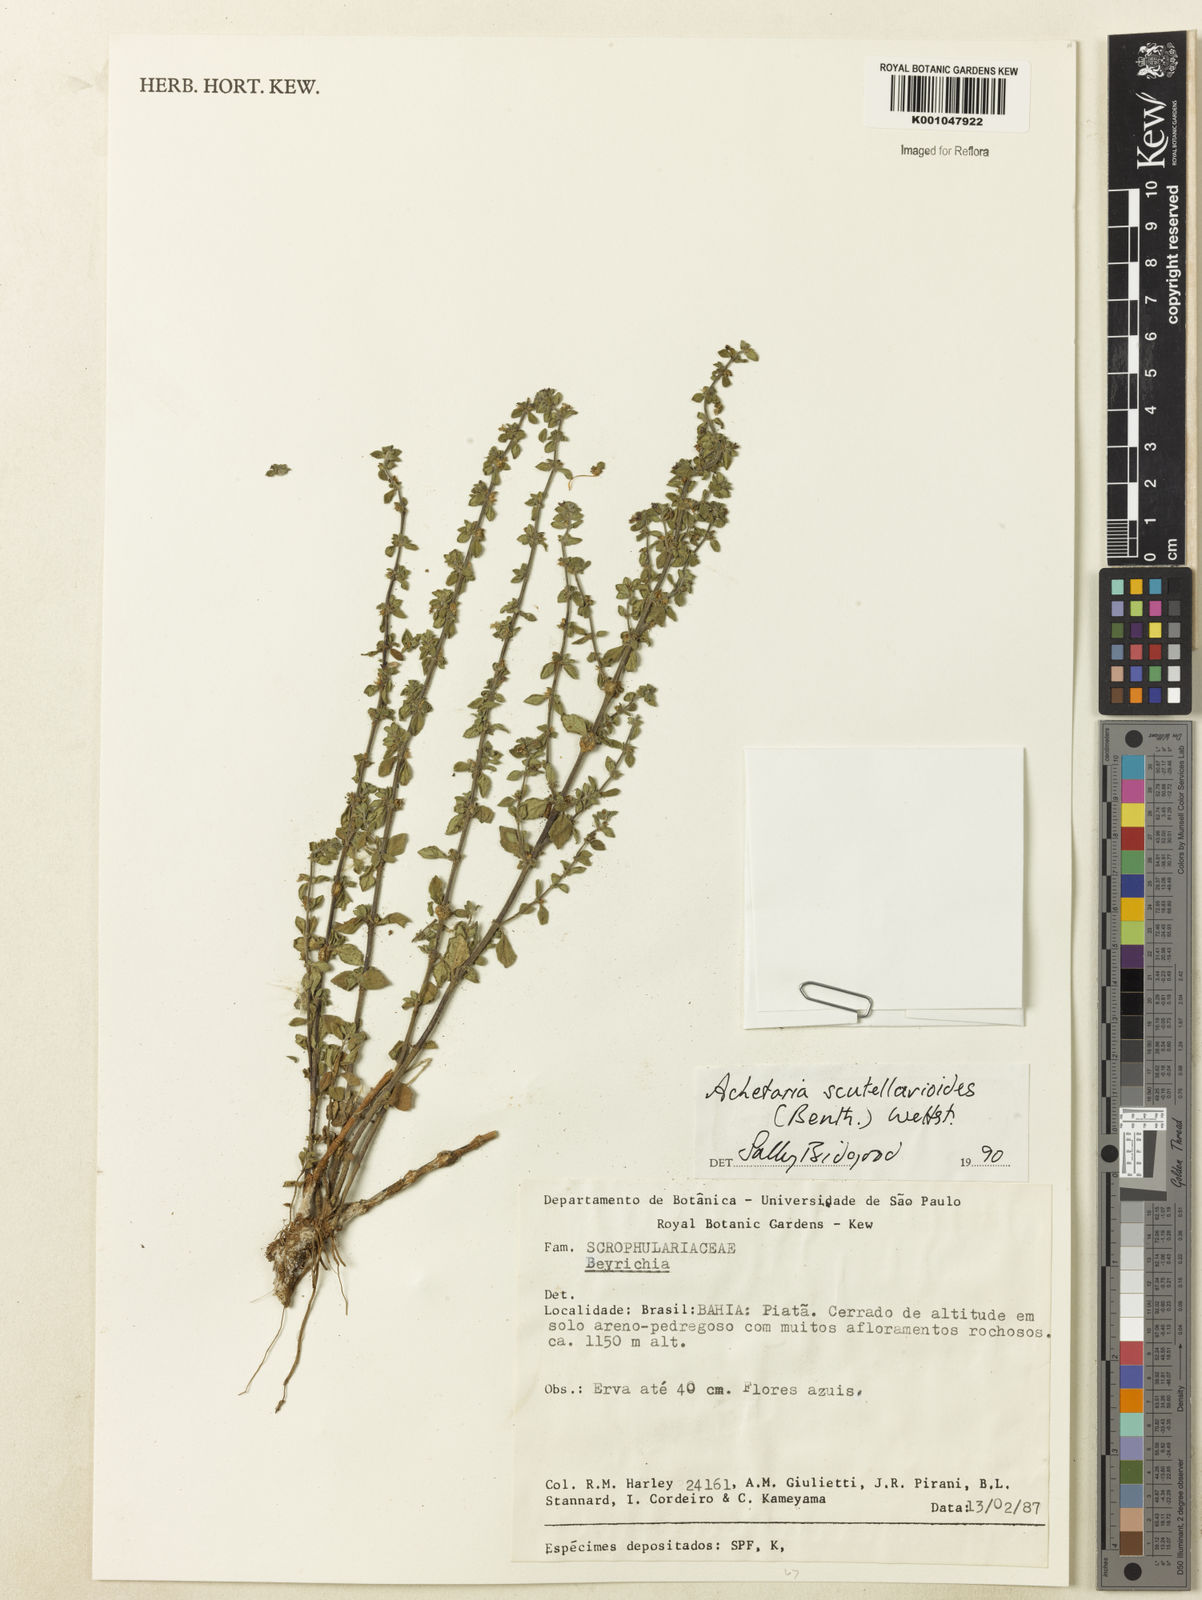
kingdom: Plantae
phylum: Tracheophyta
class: Magnoliopsida
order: Lamiales
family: Plantaginaceae
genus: Matourea
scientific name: Matourea scutellarioides
